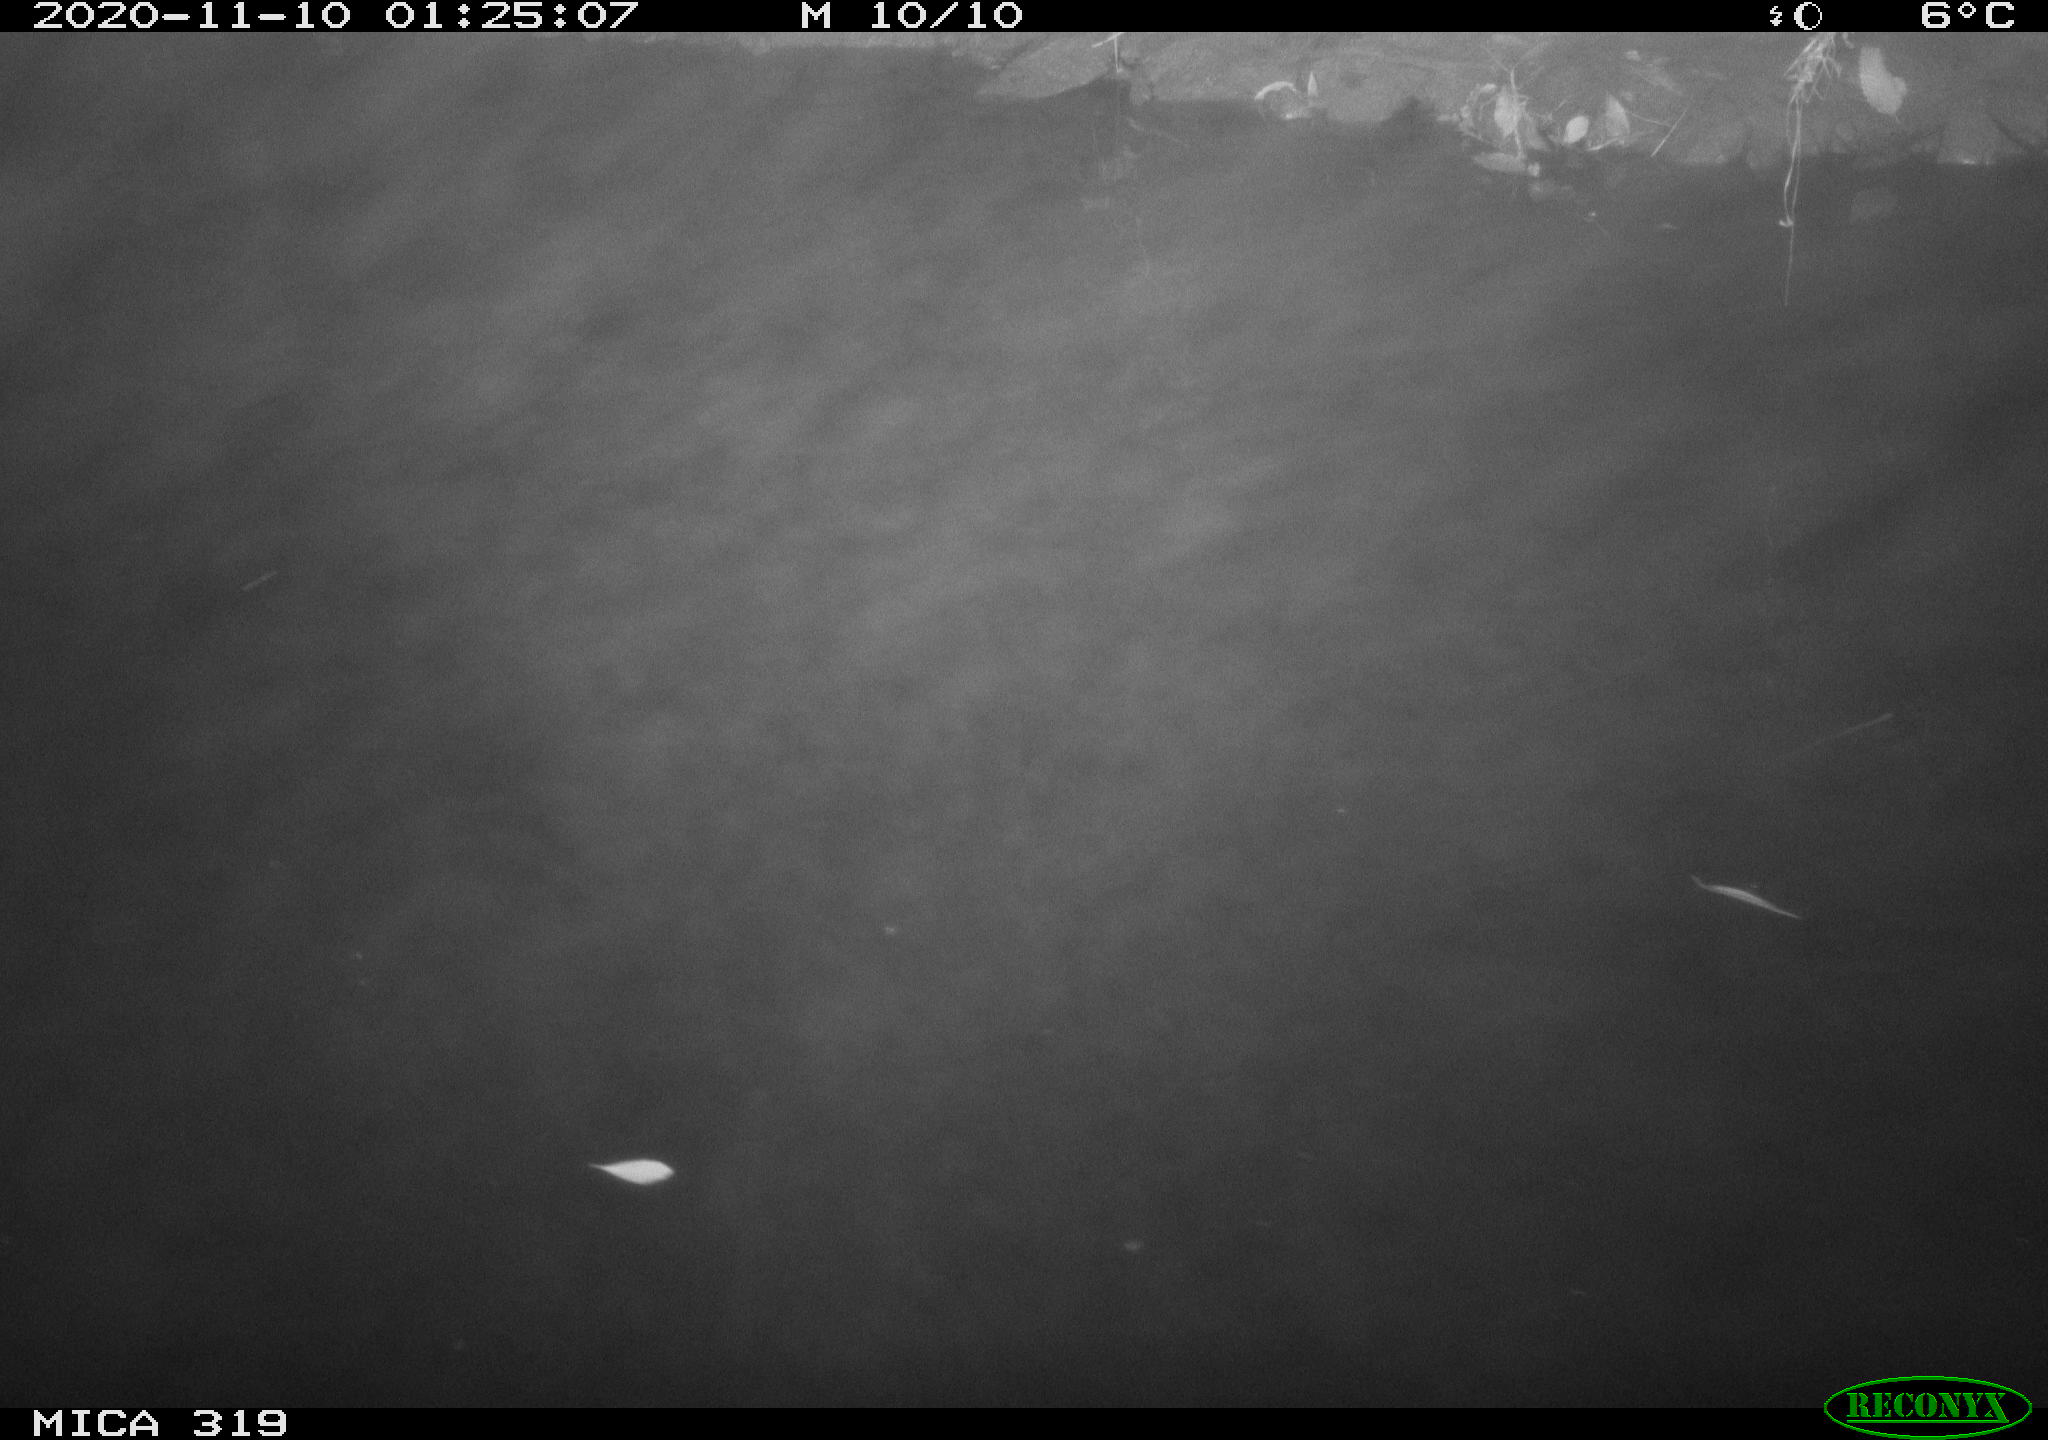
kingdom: Animalia
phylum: Chordata
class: Aves
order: Anseriformes
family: Anatidae
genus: Anas
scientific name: Anas platyrhynchos
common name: Mallard
